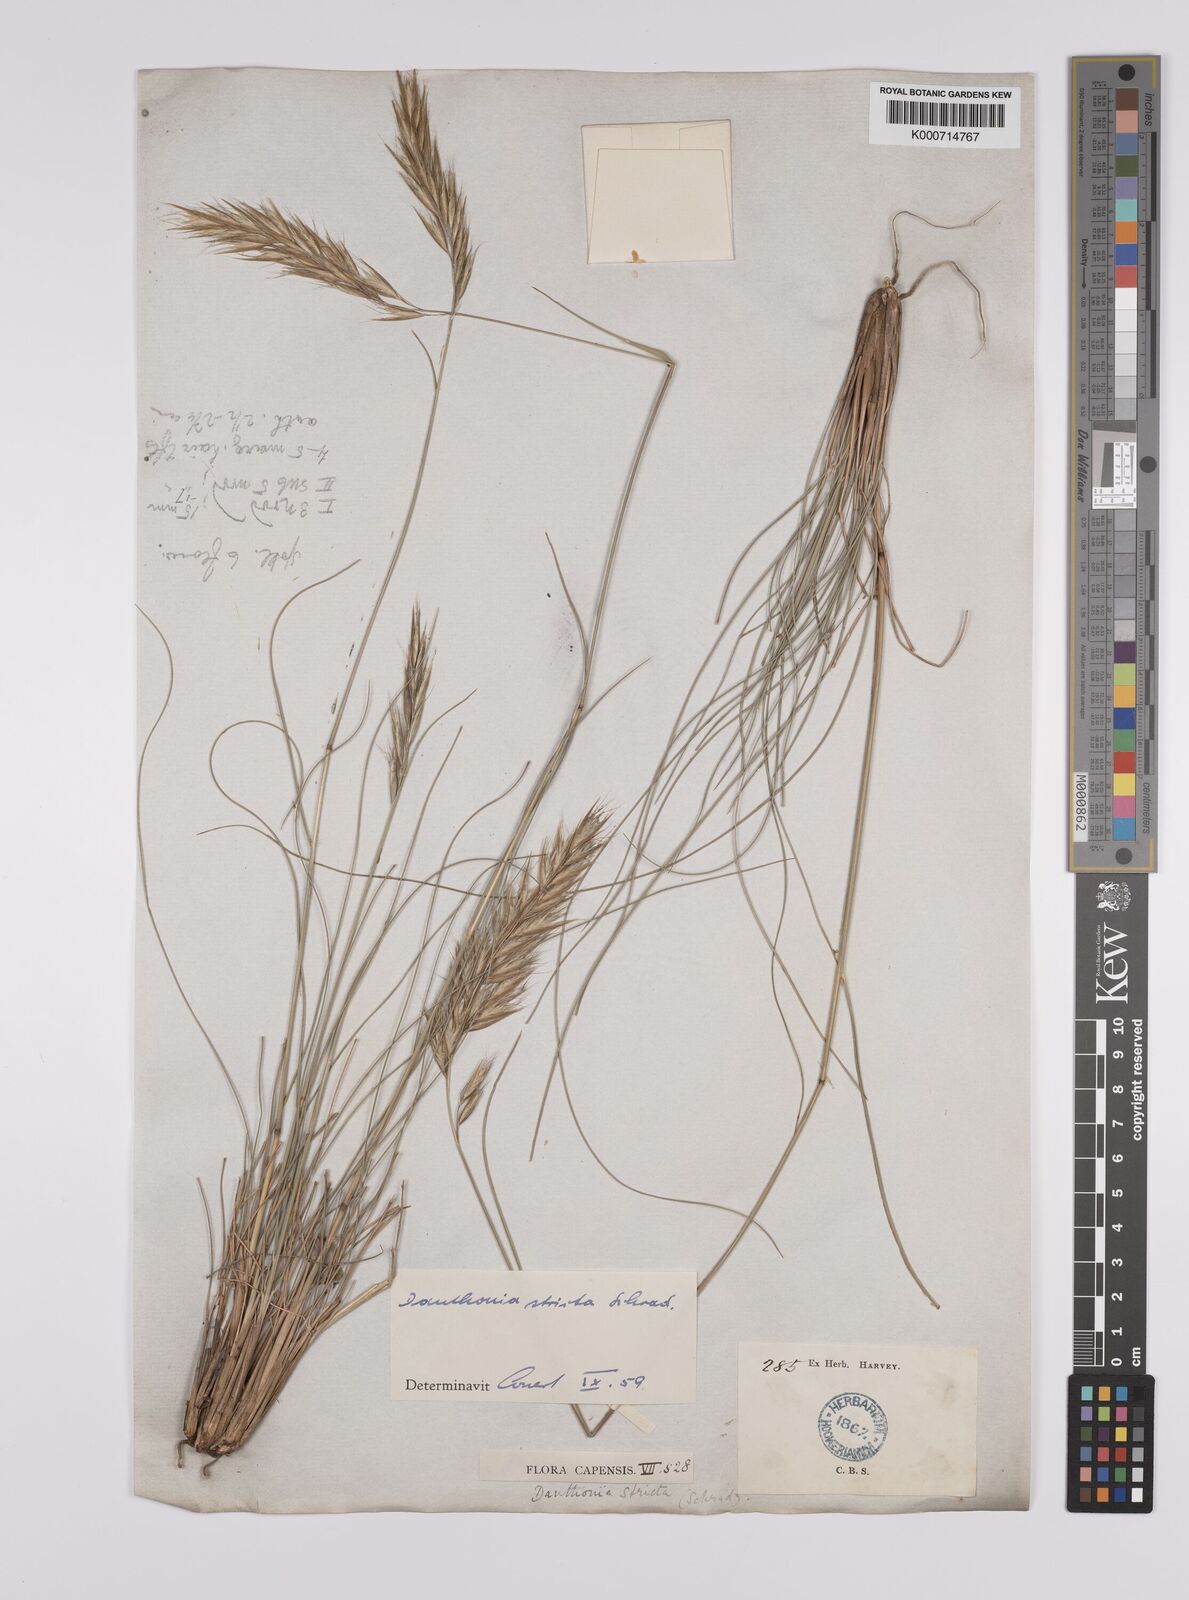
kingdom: Plantae
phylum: Tracheophyta
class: Liliopsida
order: Poales
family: Poaceae
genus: Rytidosperma
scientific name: Rytidosperma
